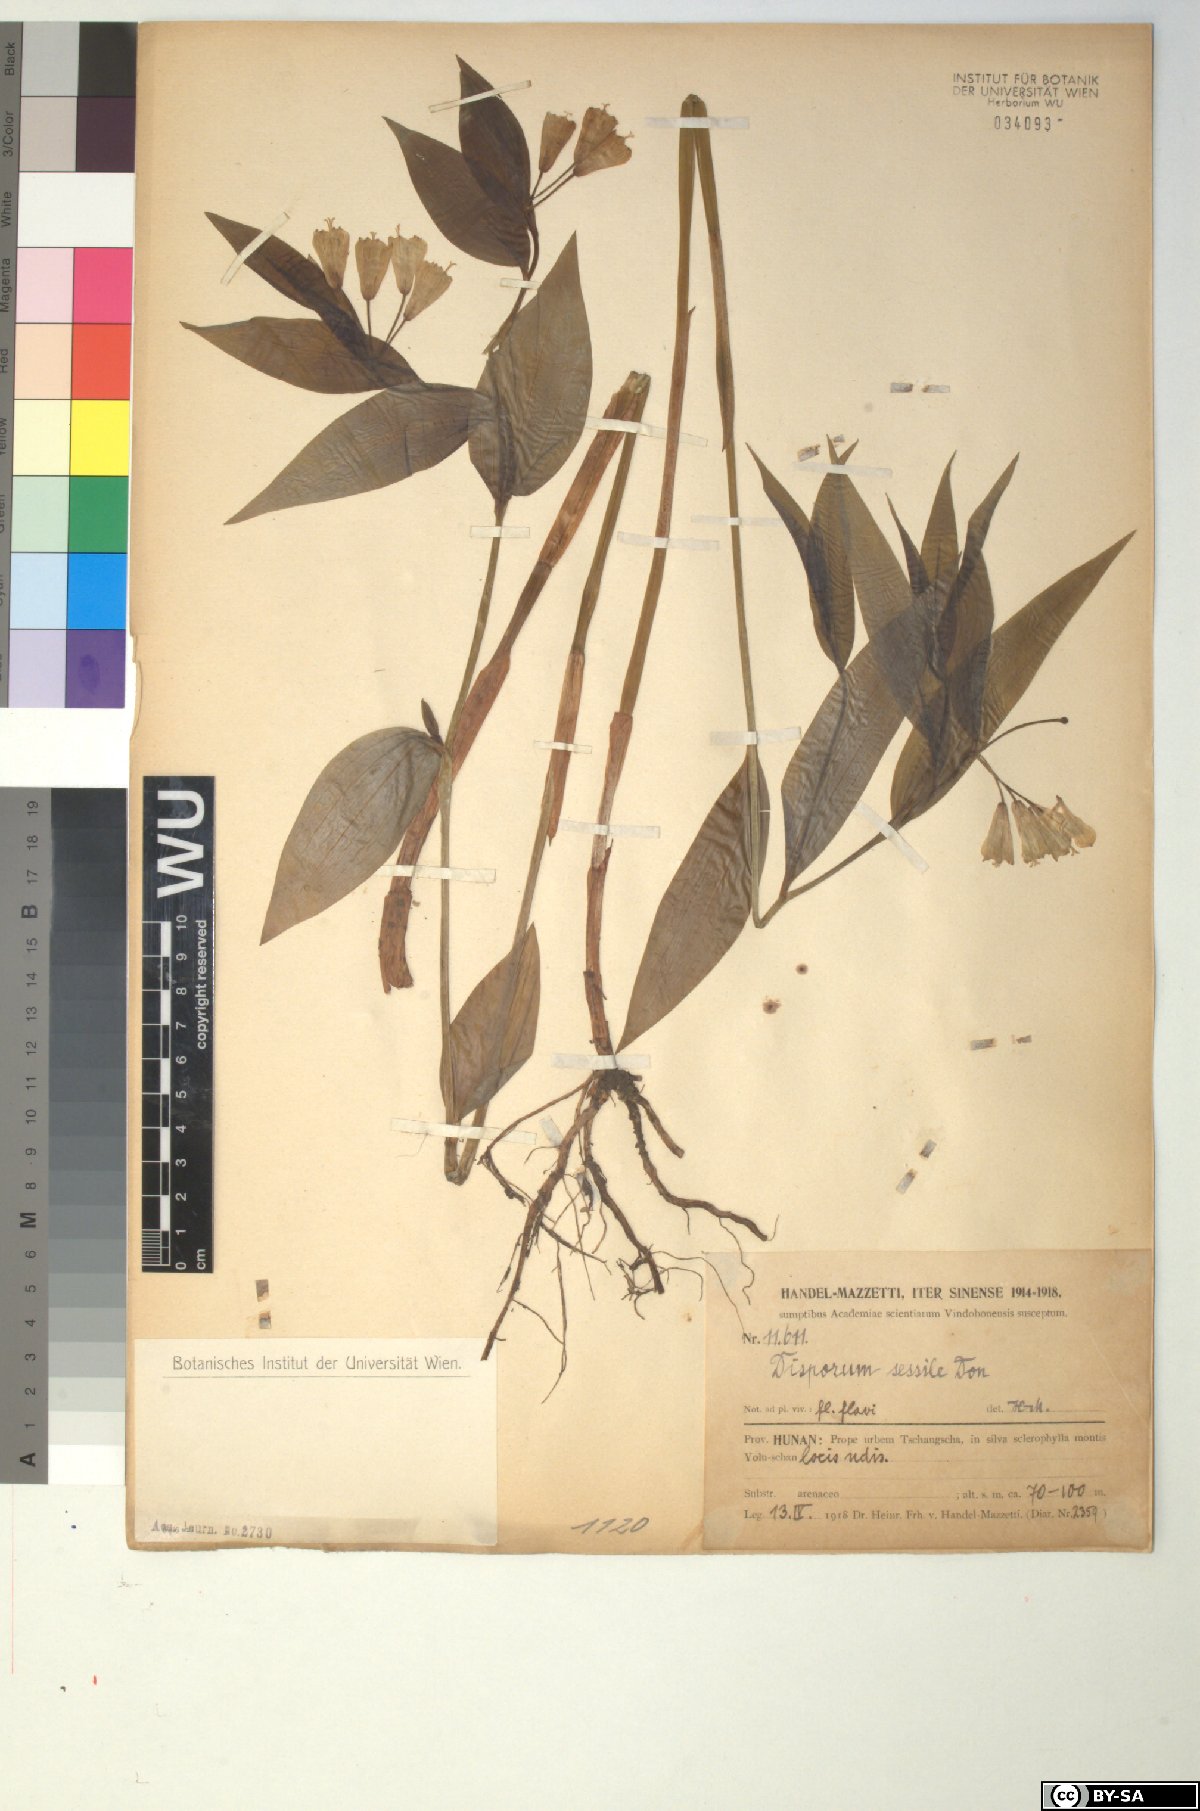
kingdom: Plantae
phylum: Tracheophyta
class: Liliopsida
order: Liliales
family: Colchicaceae
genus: Disporum
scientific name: Disporum sessile
